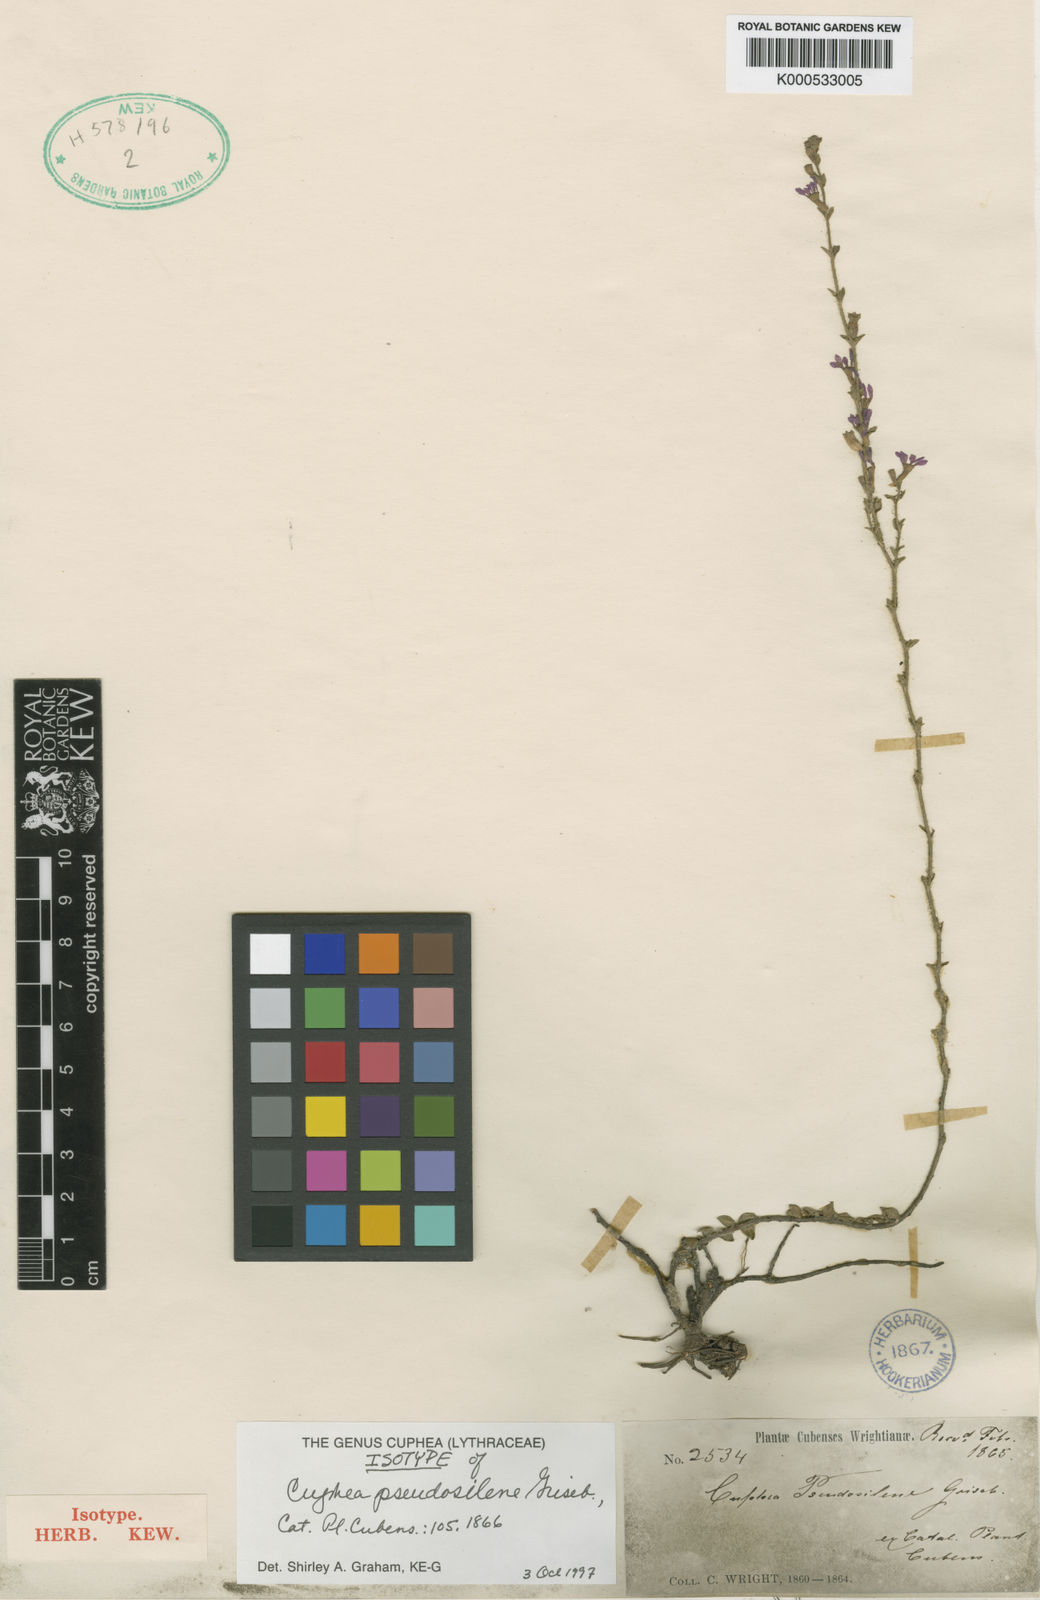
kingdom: Plantae
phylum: Tracheophyta
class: Magnoliopsida
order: Myrtales
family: Lythraceae
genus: Cuphea
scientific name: Cuphea pseudosilene
